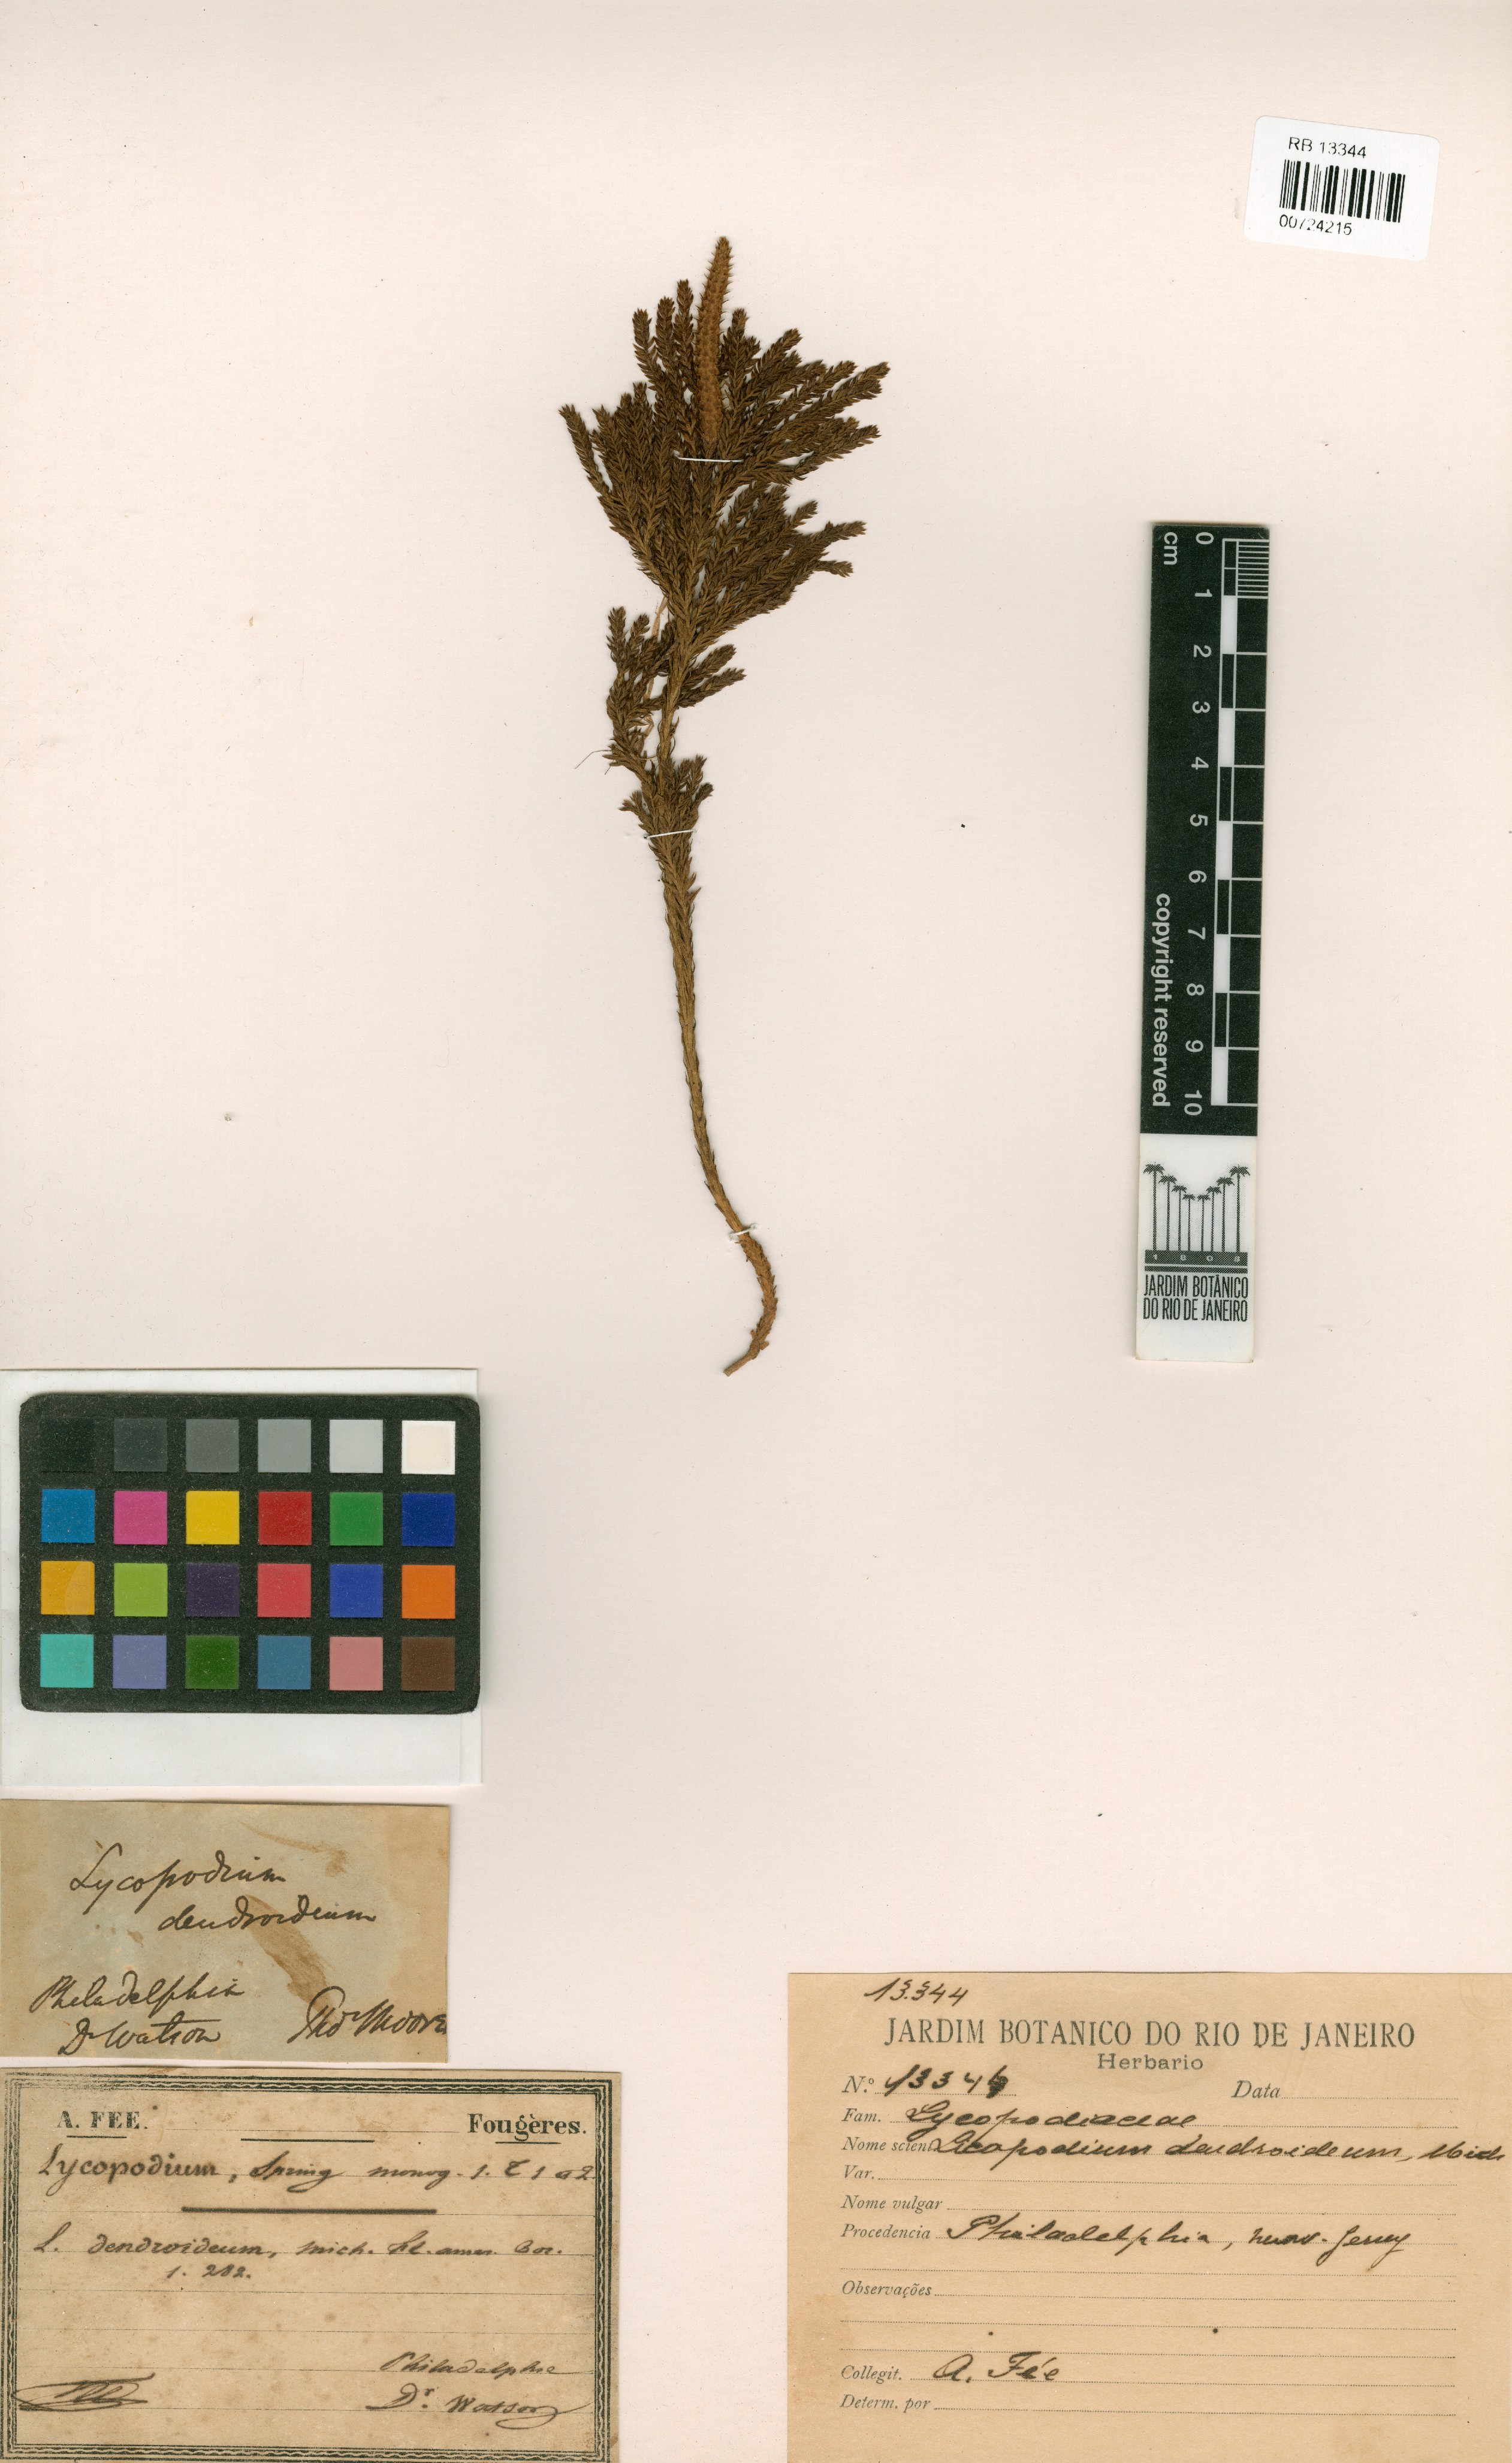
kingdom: Plantae
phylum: Tracheophyta
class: Lycopodiopsida
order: Lycopodiales
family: Lycopodiaceae
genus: Dendrolycopodium
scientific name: Dendrolycopodium dendroideum
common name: Northern tree-clubmoss
